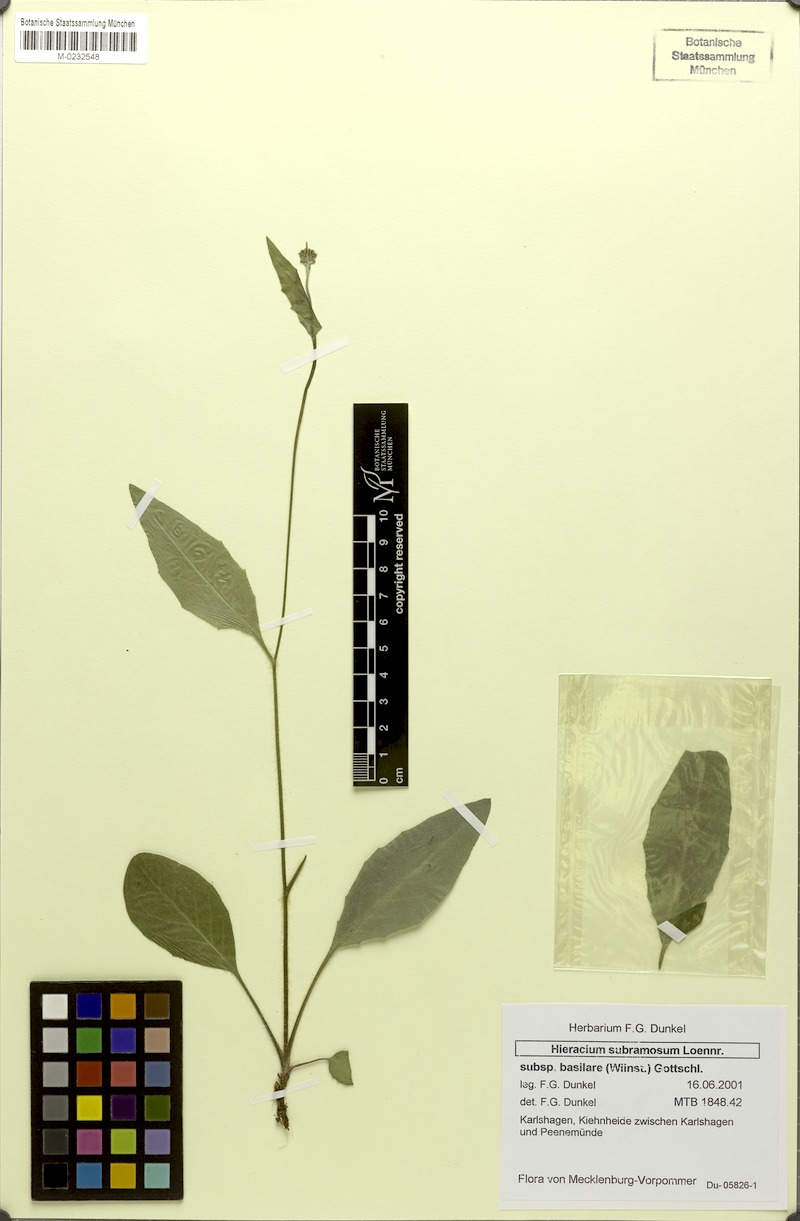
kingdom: Plantae
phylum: Tracheophyta
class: Magnoliopsida
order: Asterales
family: Asteraceae
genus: Hieracium
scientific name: Hieracium subramosum
